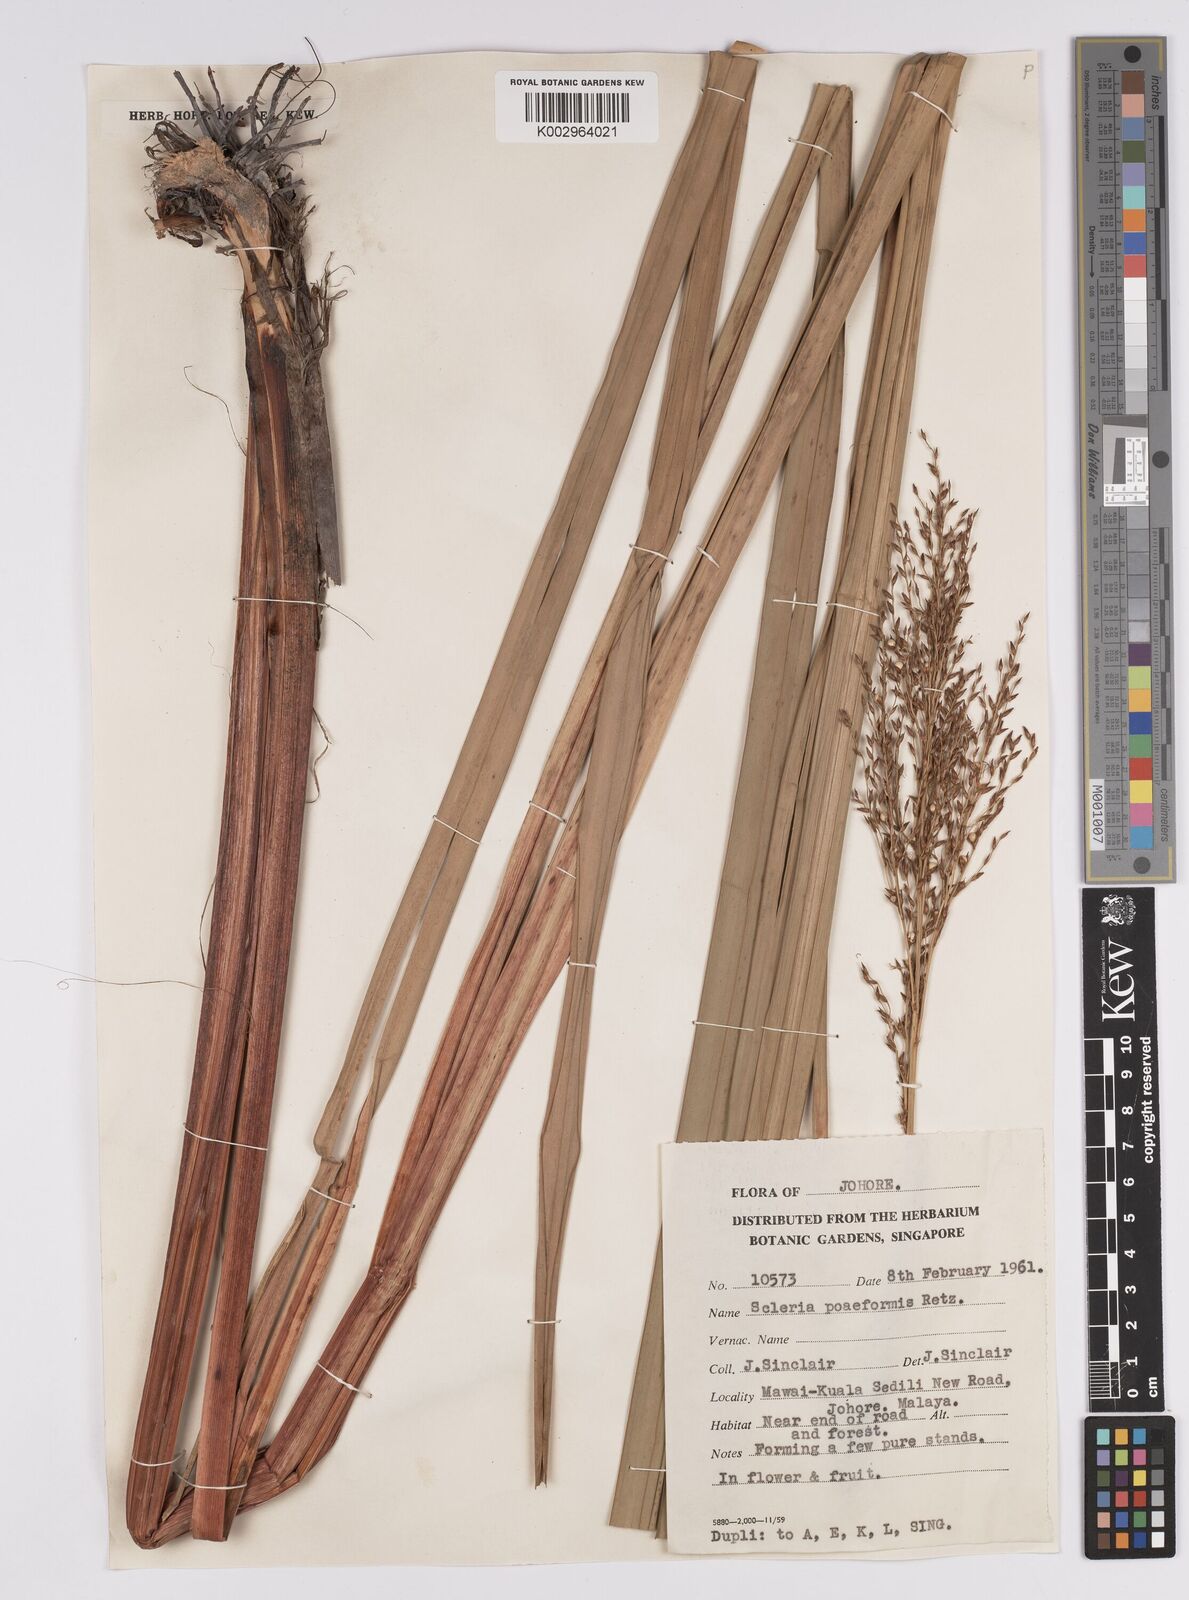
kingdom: Plantae
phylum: Tracheophyta
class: Liliopsida
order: Poales
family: Cyperaceae
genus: Scleria
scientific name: Scleria poiformis
